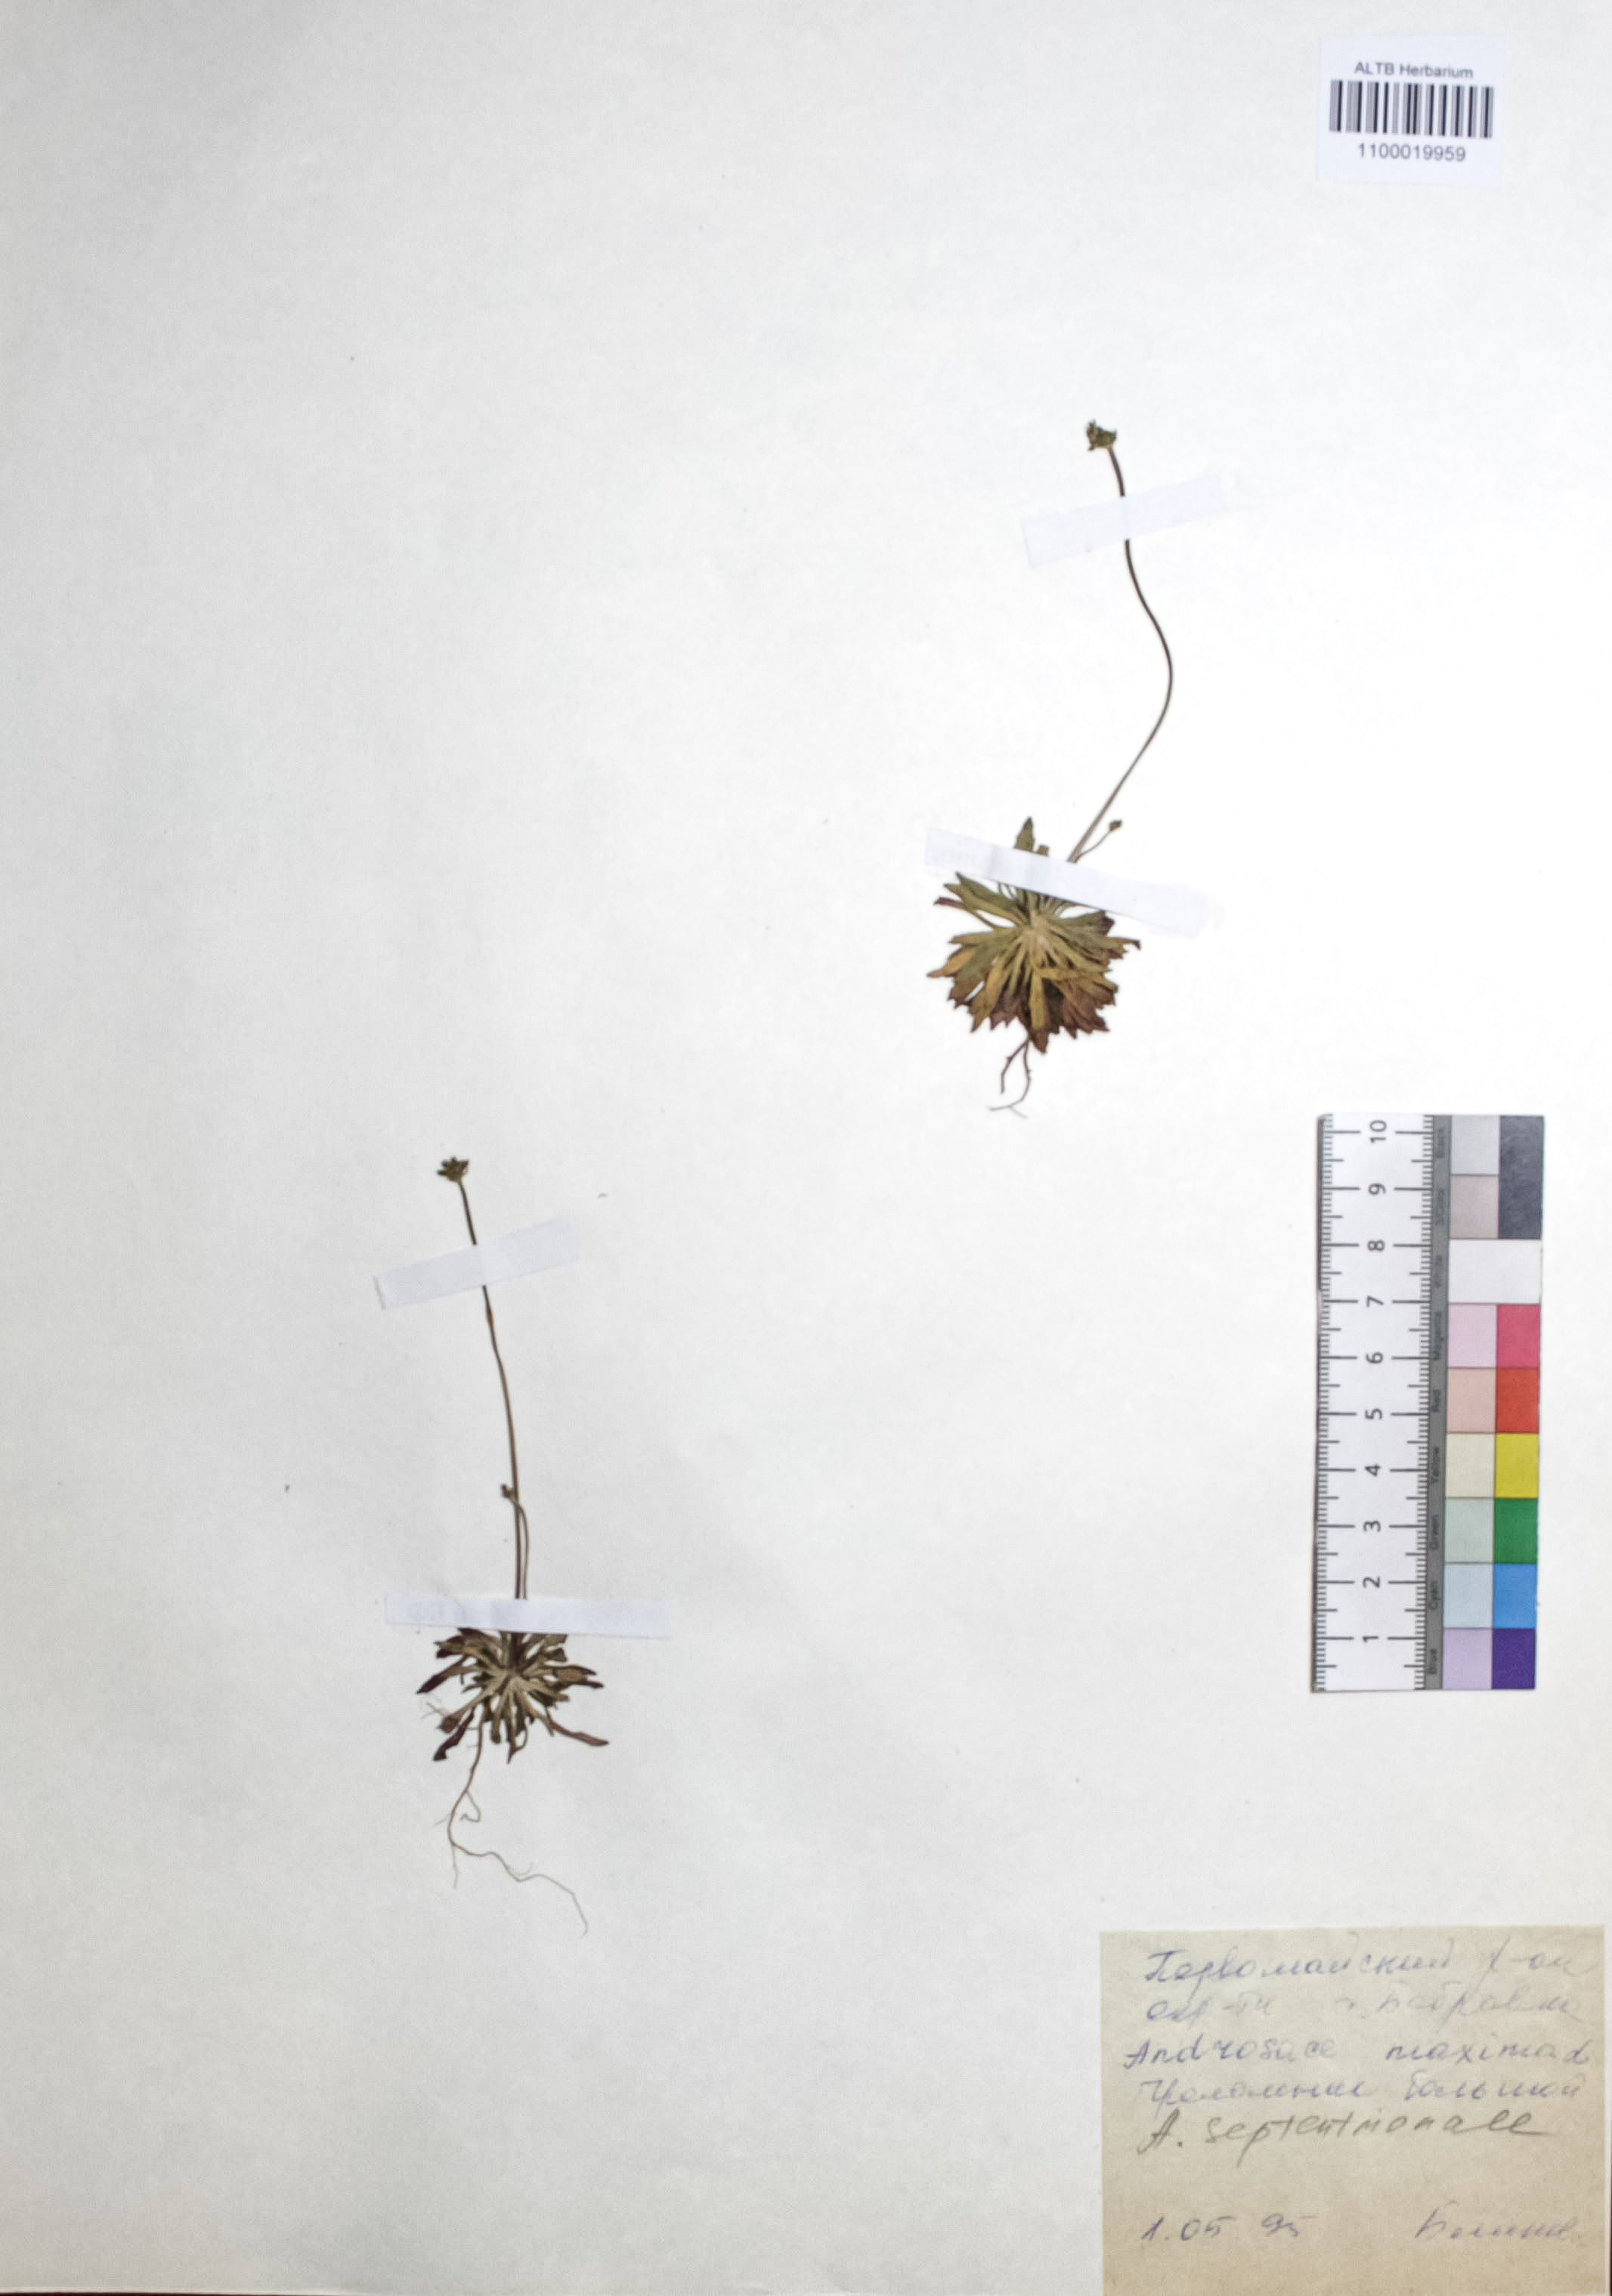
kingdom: Plantae
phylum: Tracheophyta
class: Magnoliopsida
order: Ericales
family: Primulaceae
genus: Androsace
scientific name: Androsace septentrionalis
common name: Hairy northern fairy-candelabra
